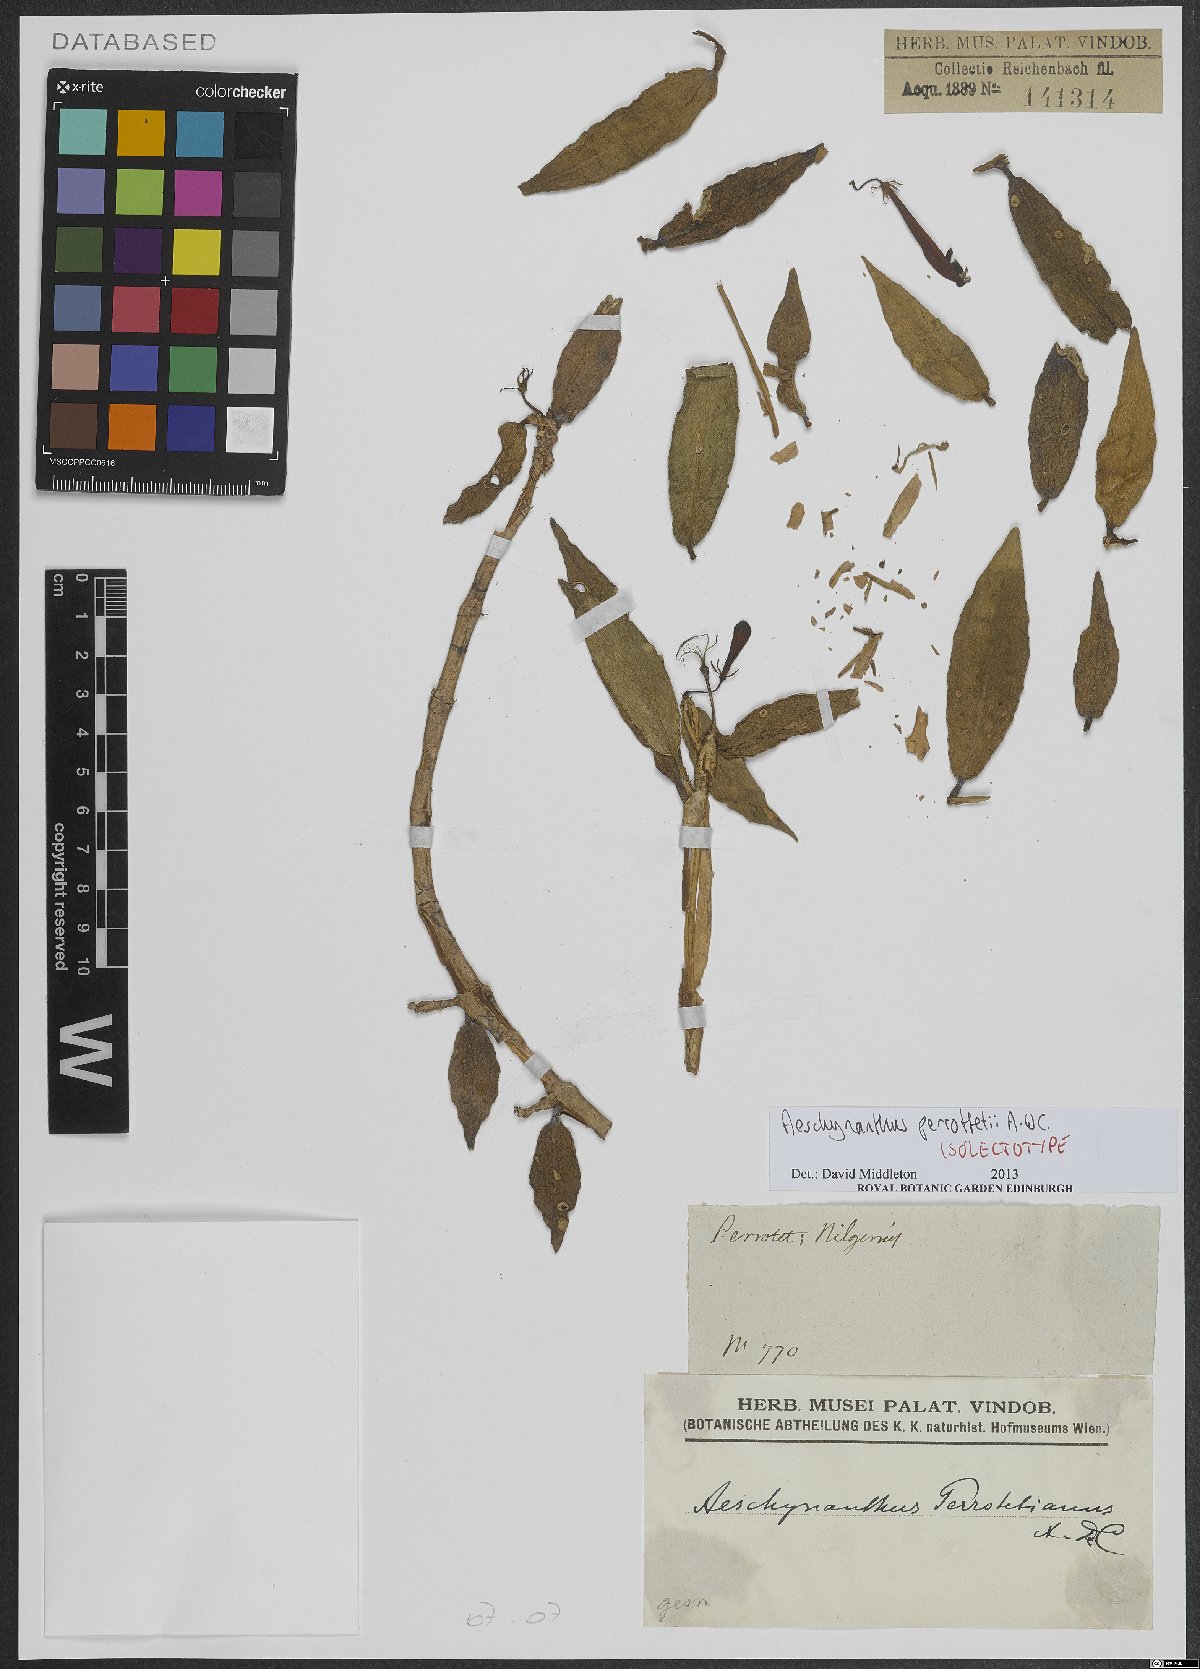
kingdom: Plantae
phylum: Tracheophyta
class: Magnoliopsida
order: Lamiales
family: Gesneriaceae
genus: Aeschynanthus
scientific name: Aeschynanthus perrottetii
